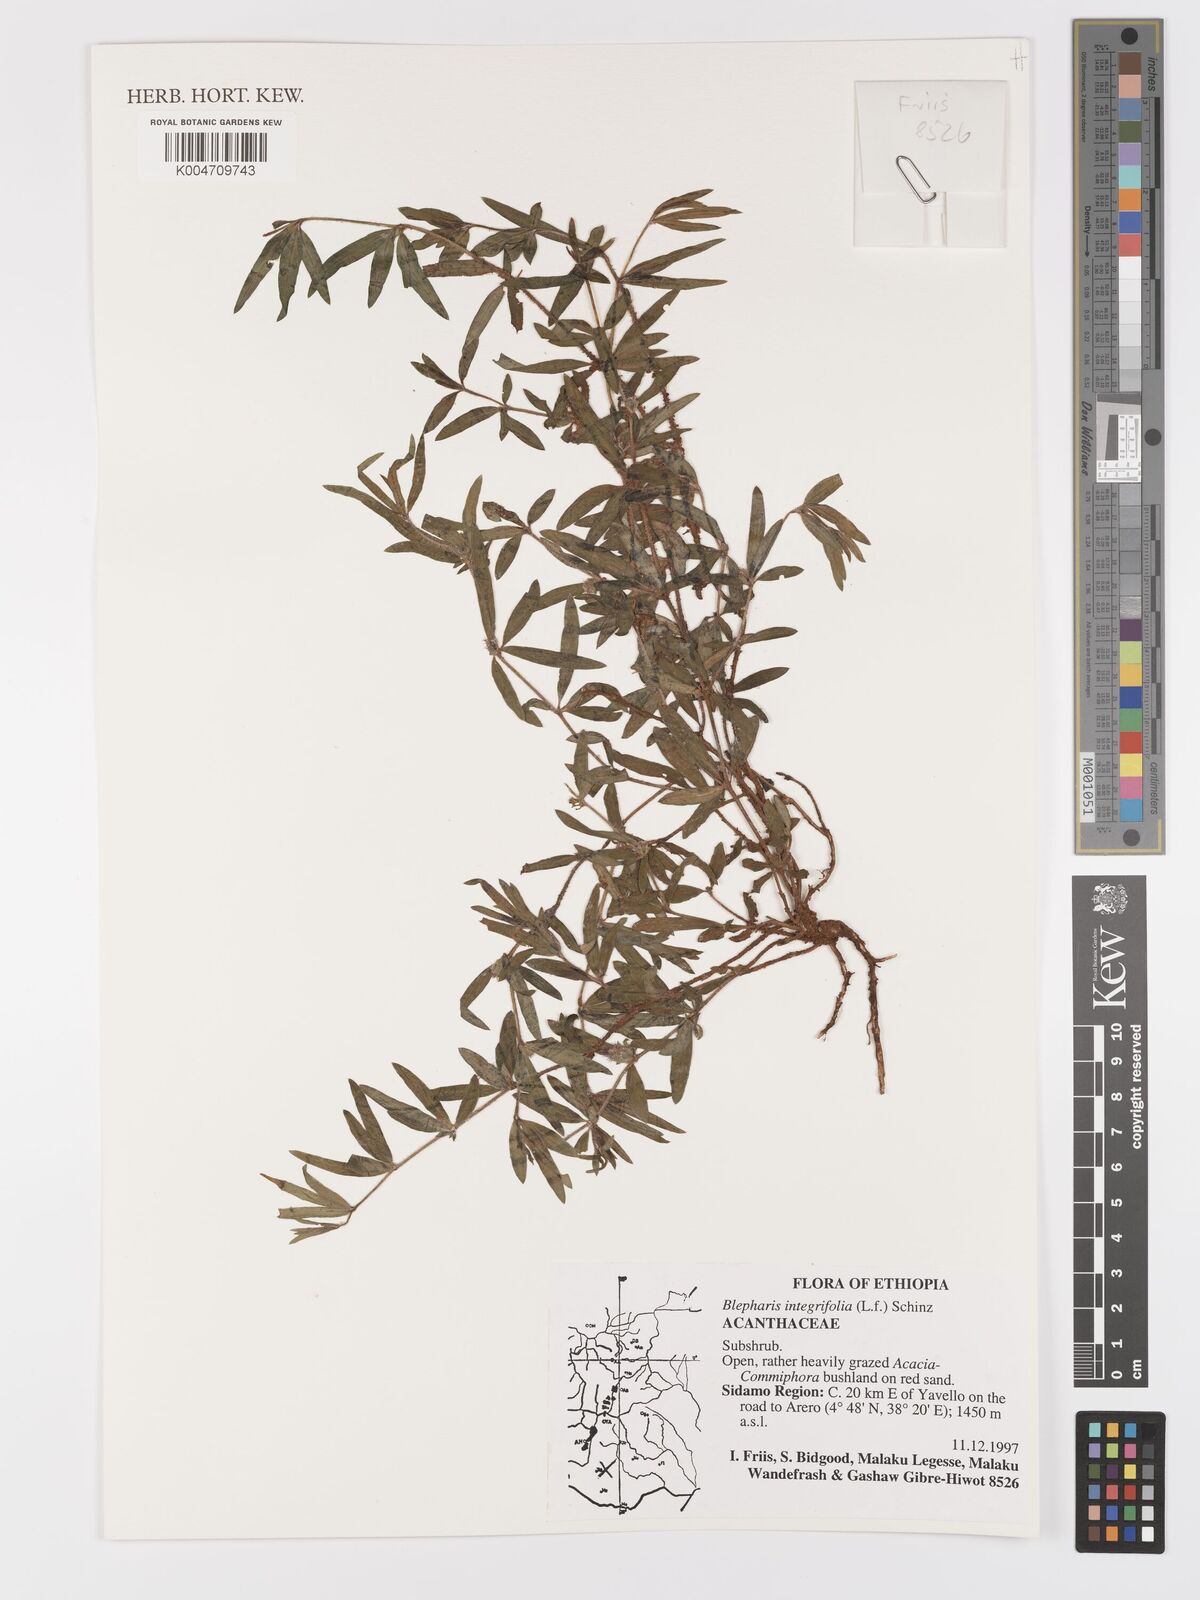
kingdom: Plantae
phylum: Tracheophyta
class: Magnoliopsida
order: Lamiales
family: Acanthaceae
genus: Blepharis
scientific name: Blepharis integrifolia
